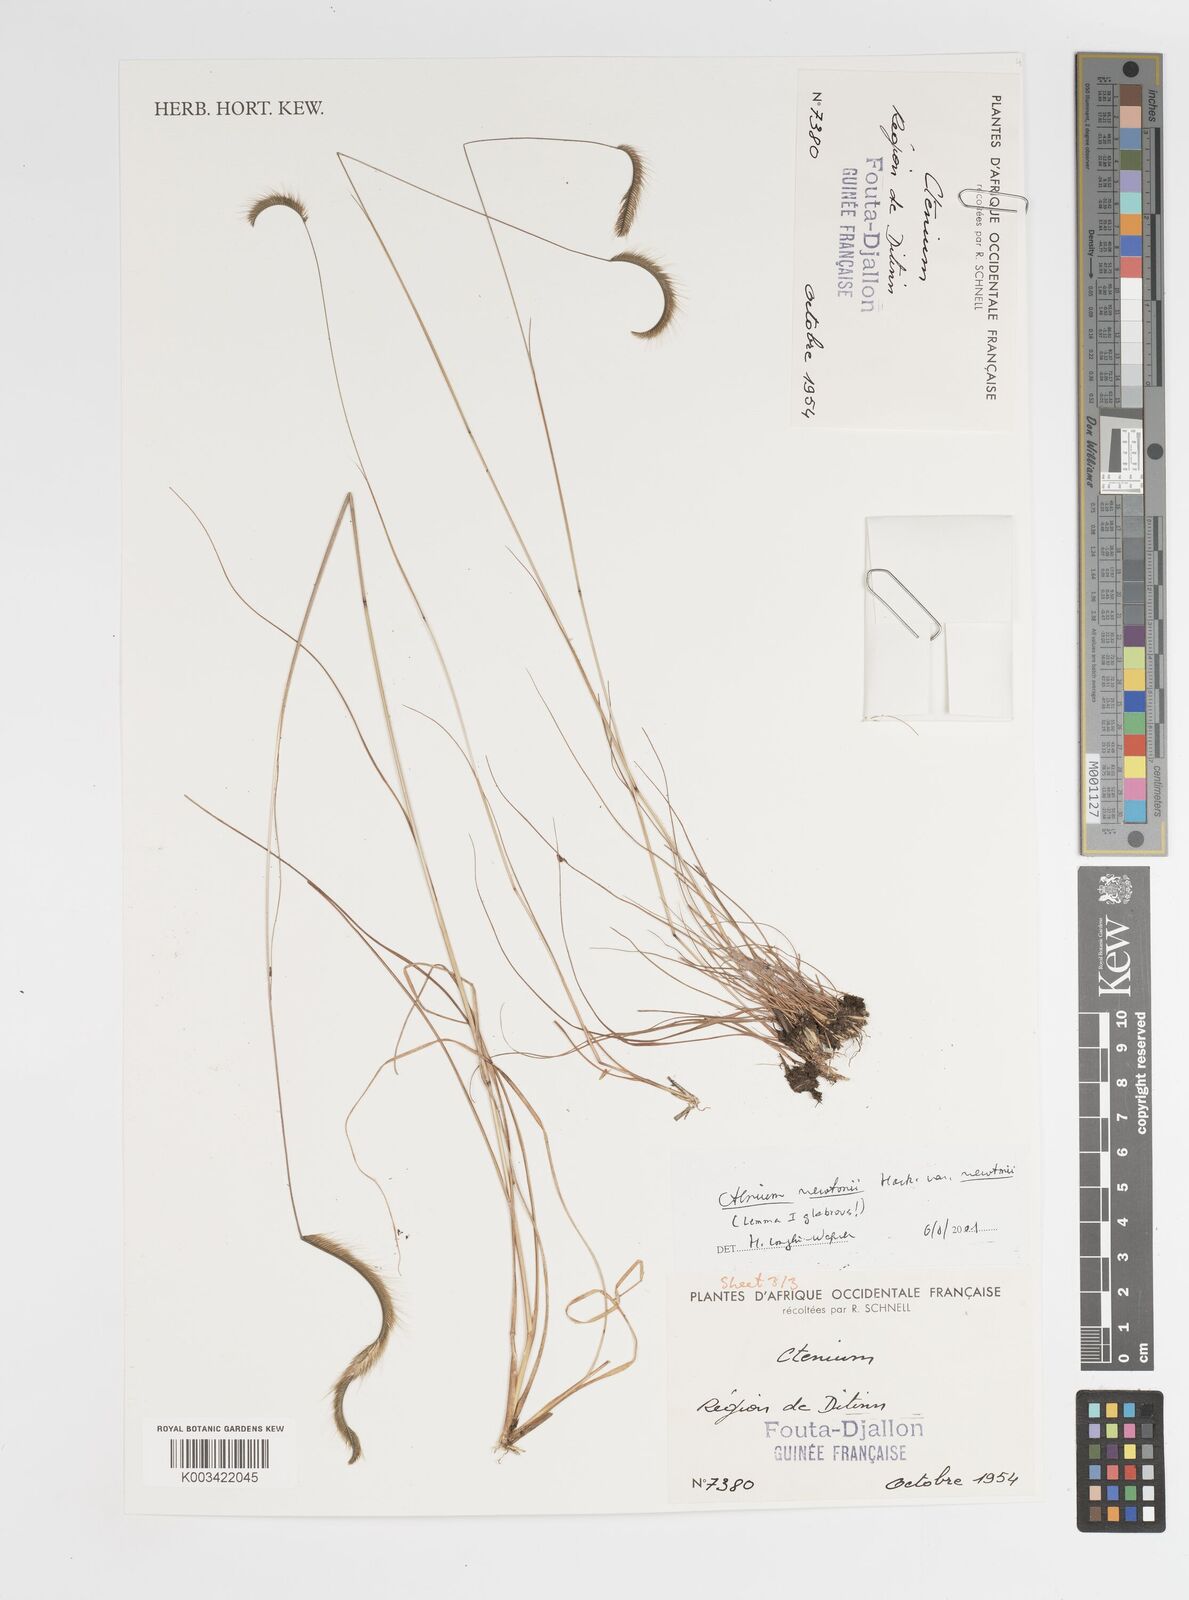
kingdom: Plantae
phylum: Tracheophyta
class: Liliopsida
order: Poales
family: Poaceae
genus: Ctenium
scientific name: Ctenium newtonii
